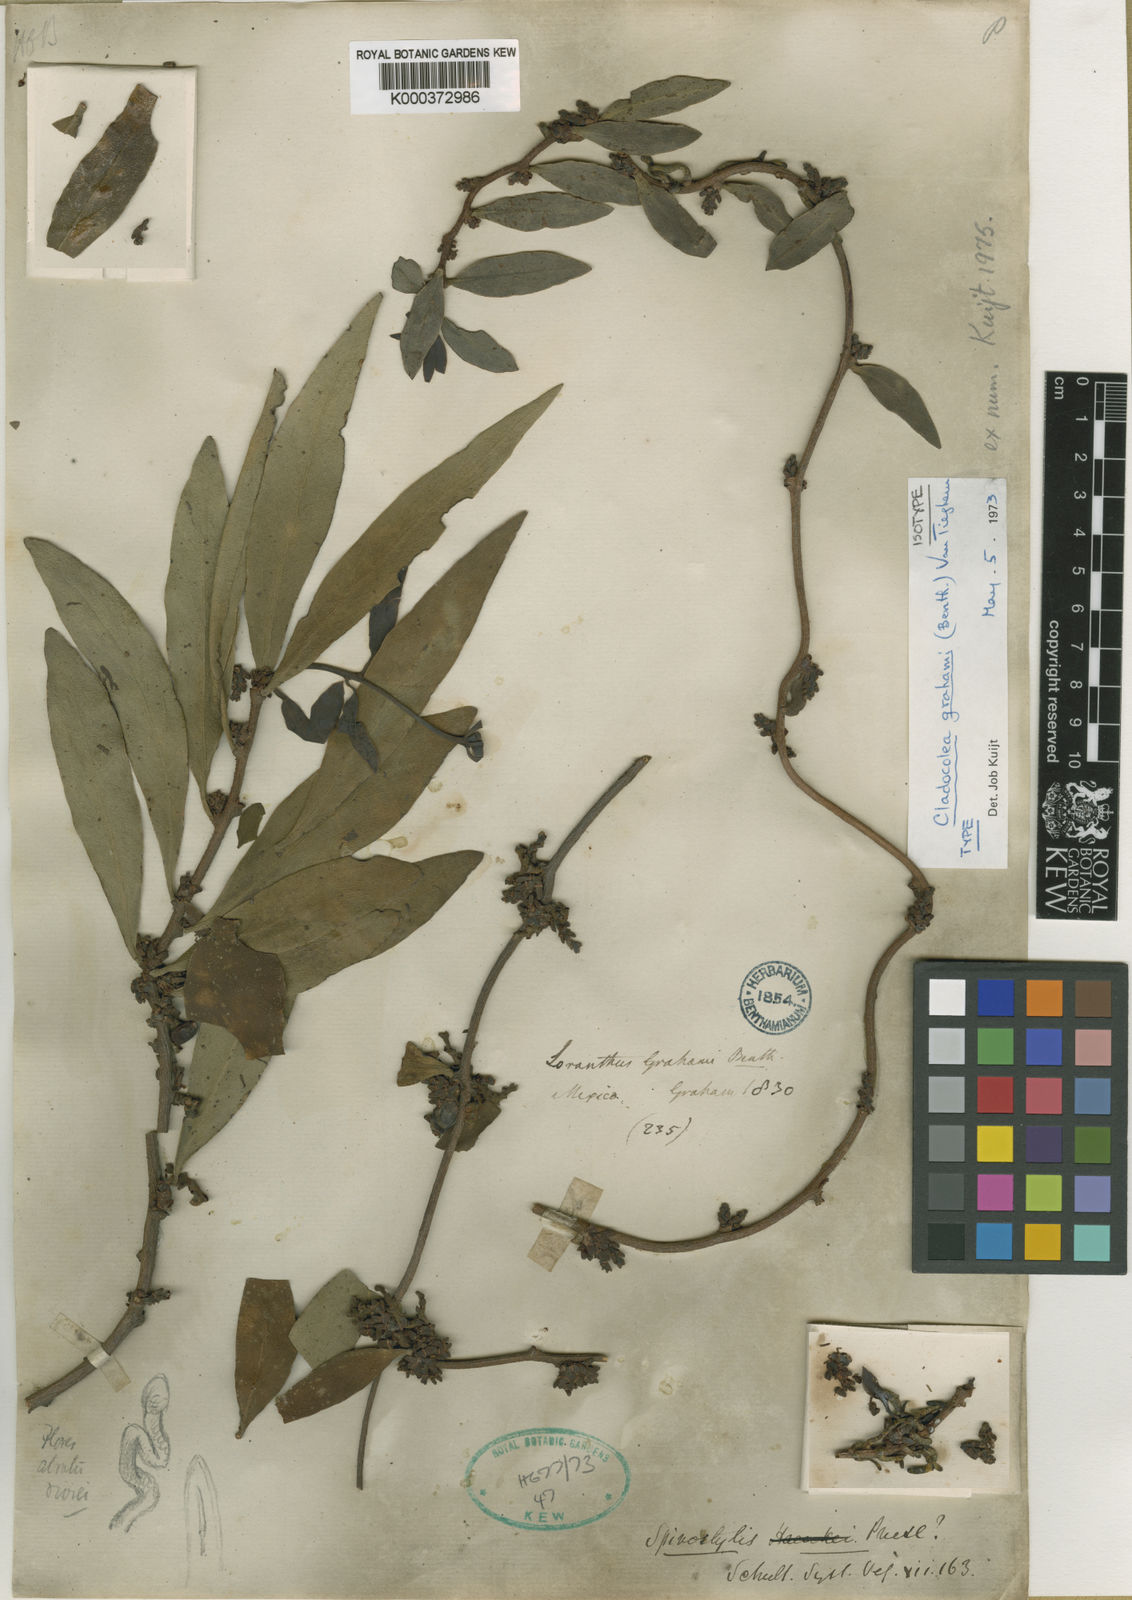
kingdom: Plantae
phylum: Tracheophyta
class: Magnoliopsida
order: Santalales
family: Loranthaceae
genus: Cladocolea
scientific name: Cladocolea grahamii
